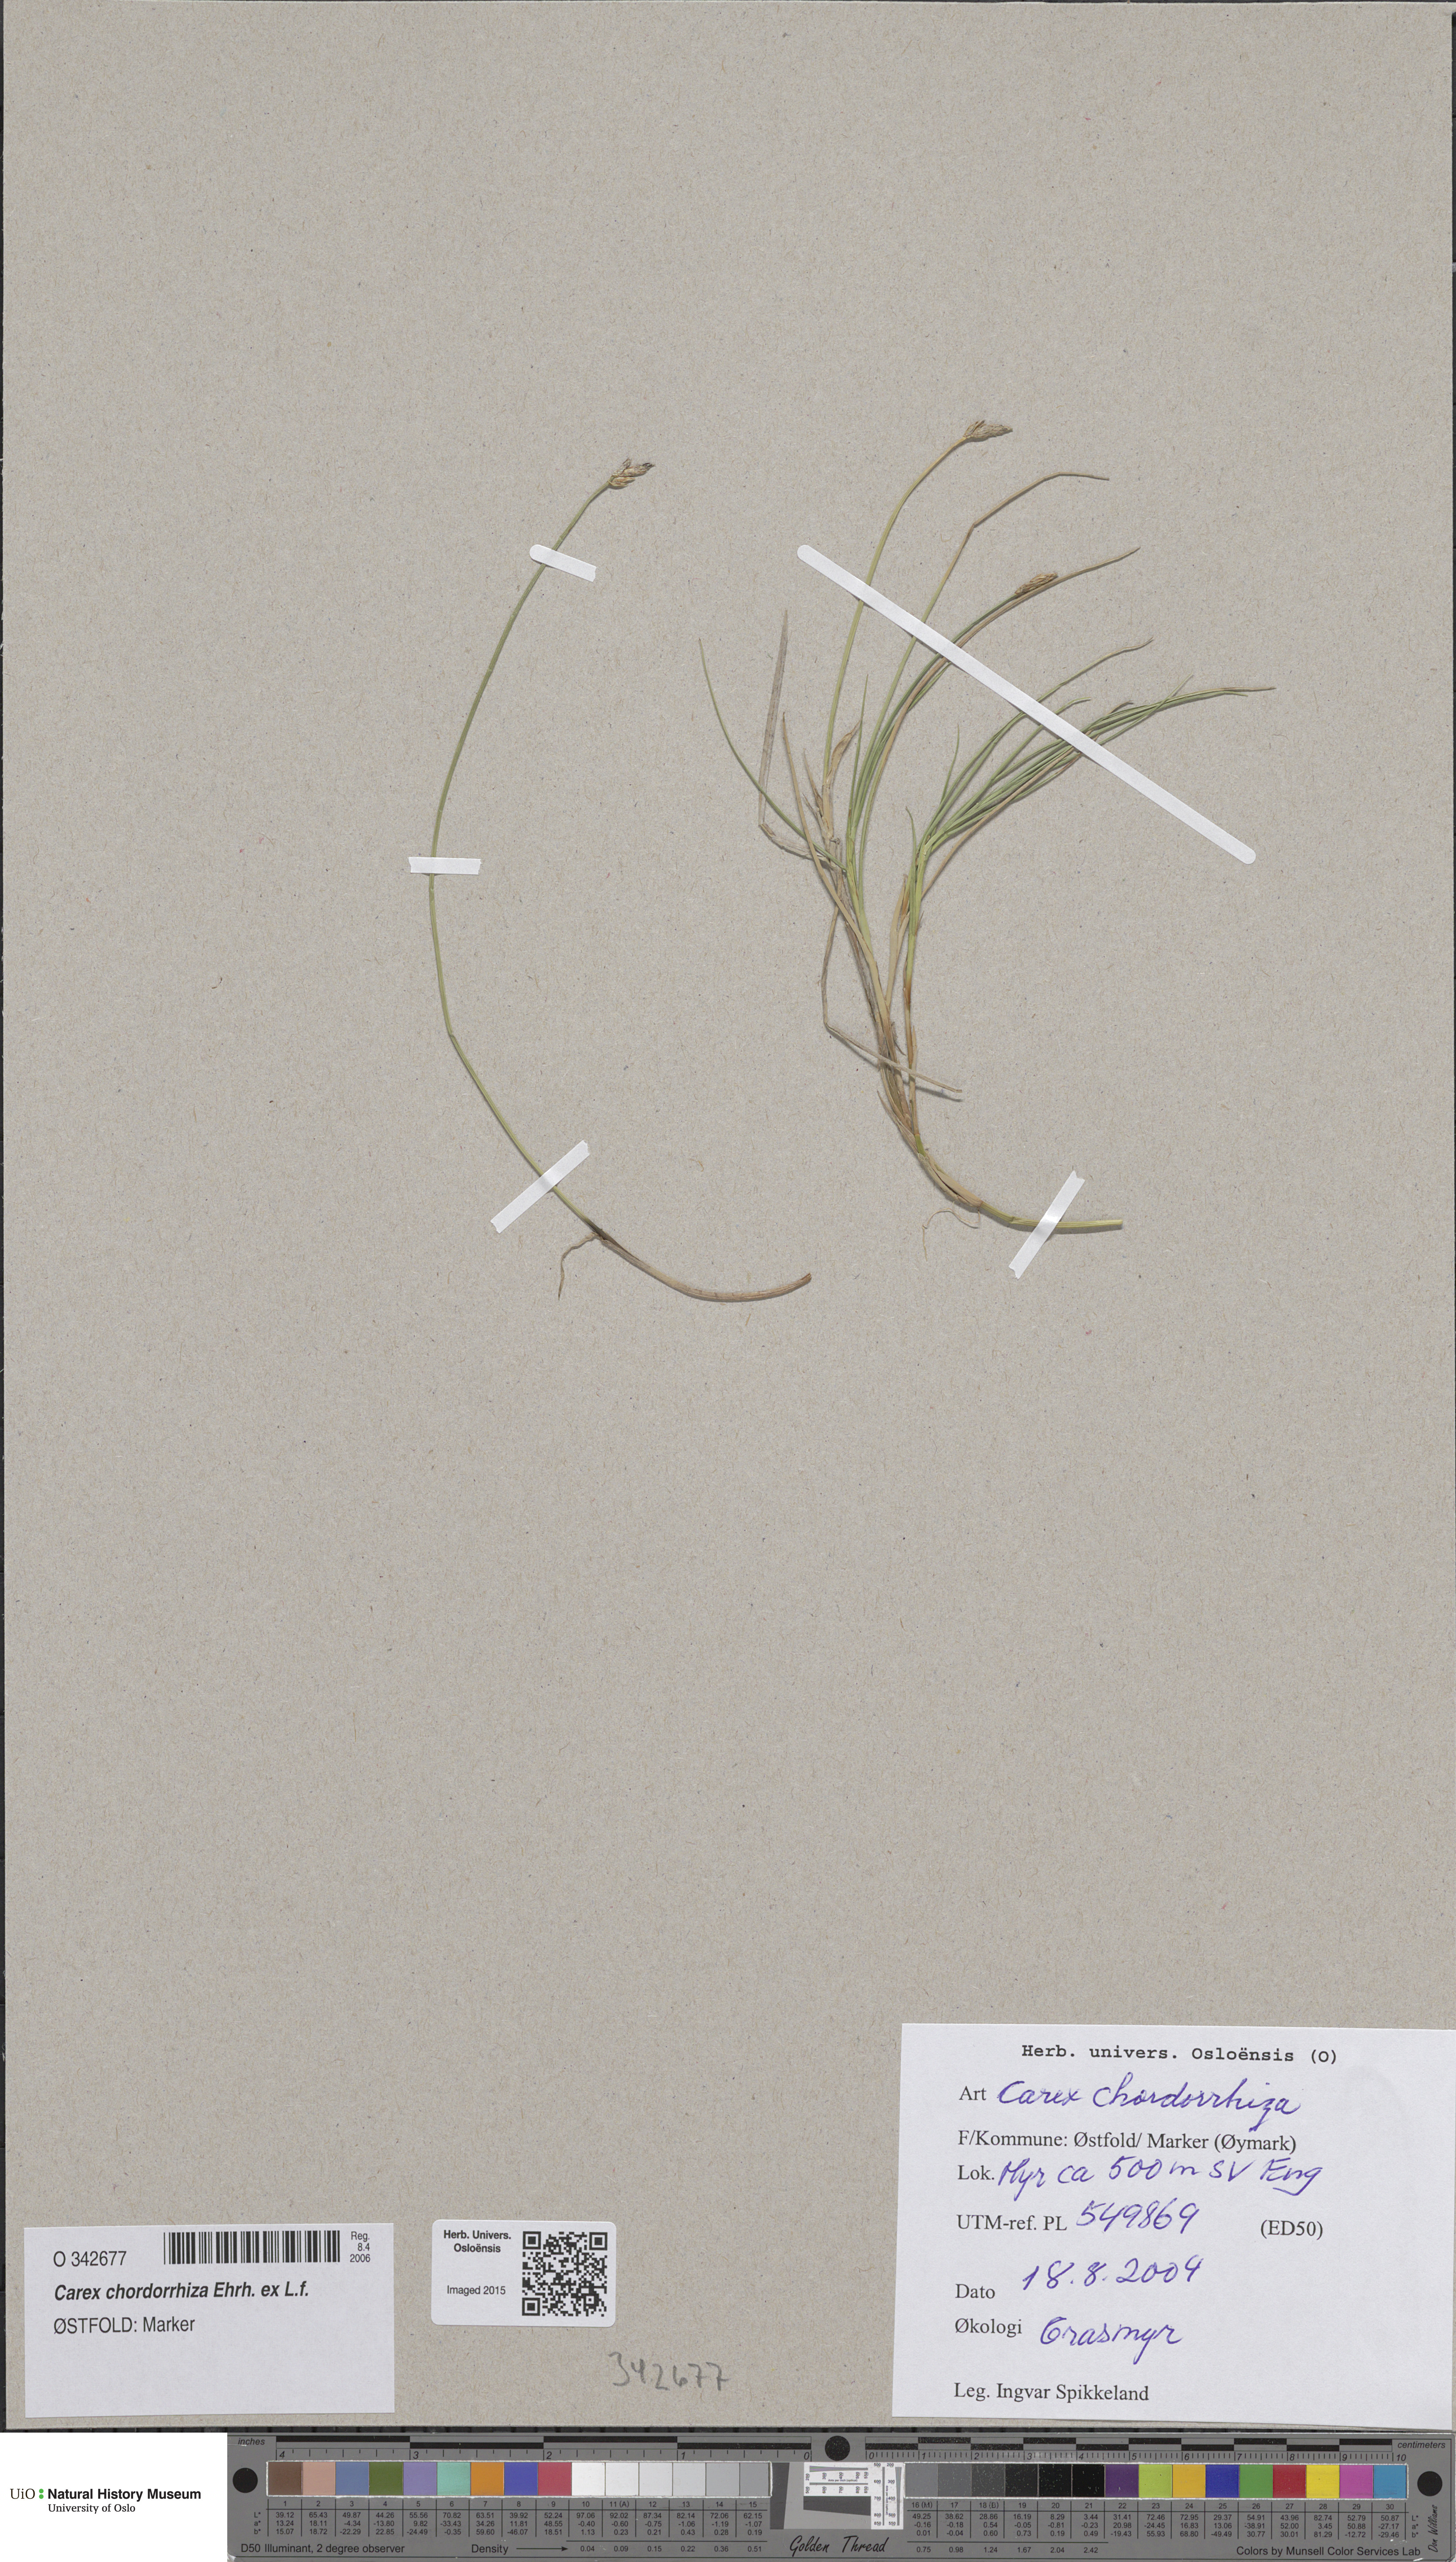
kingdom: Plantae
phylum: Tracheophyta
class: Liliopsida
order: Poales
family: Cyperaceae
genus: Carex
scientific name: Carex chordorrhiza
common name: String sedge
